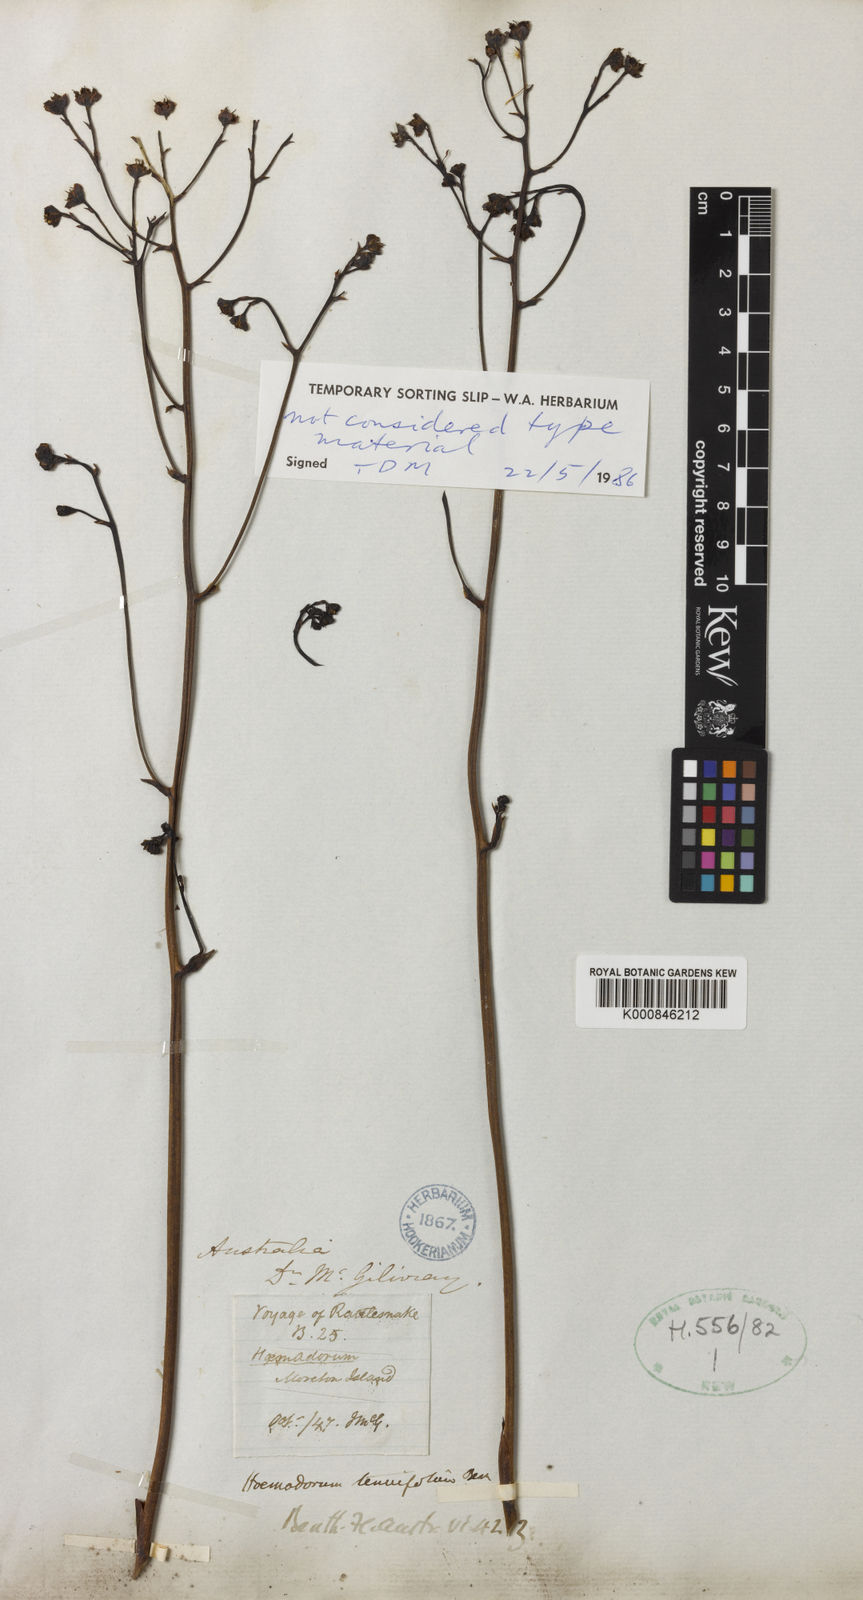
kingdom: Plantae
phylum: Tracheophyta
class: Liliopsida
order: Commelinales
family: Haemodoraceae
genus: Haemodorum
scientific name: Haemodorum tenuifolium
